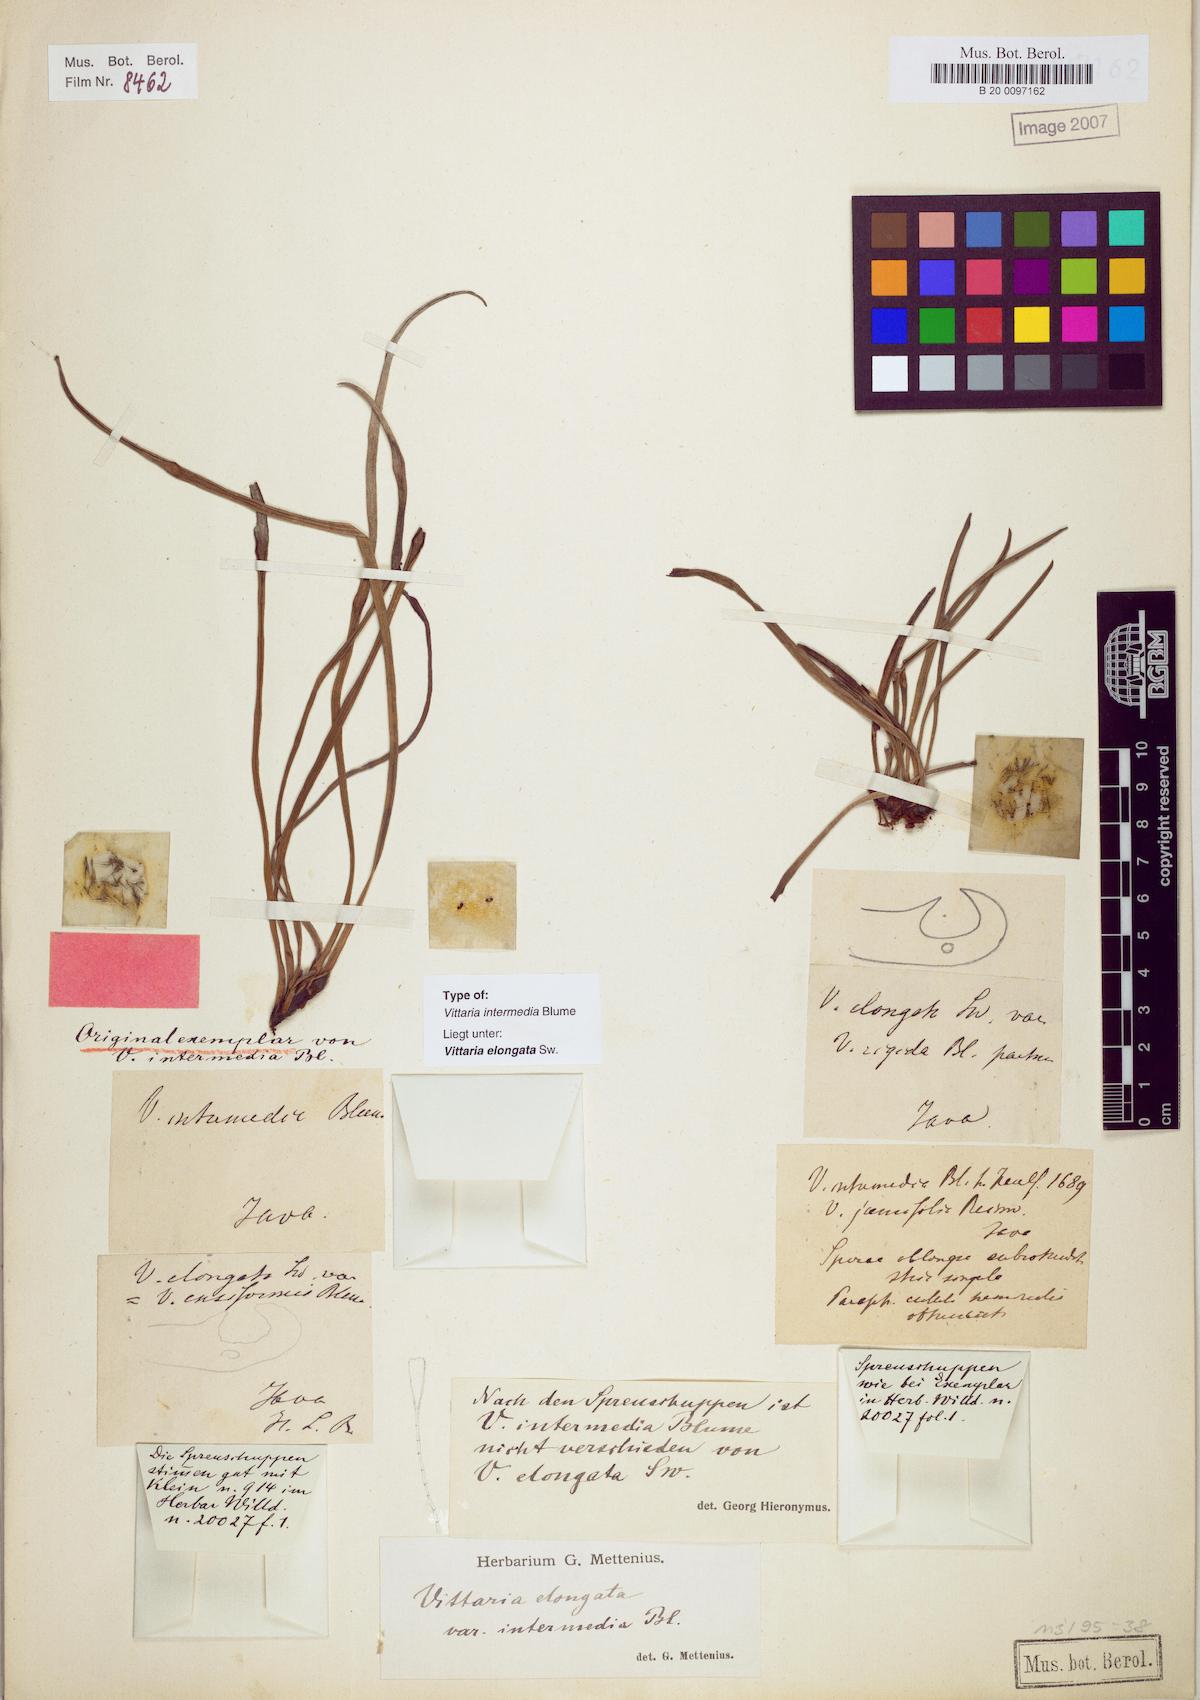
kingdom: Plantae
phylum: Tracheophyta
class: Polypodiopsida
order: Polypodiales
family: Pteridaceae
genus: Haplopteris
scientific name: Haplopteris elongata
